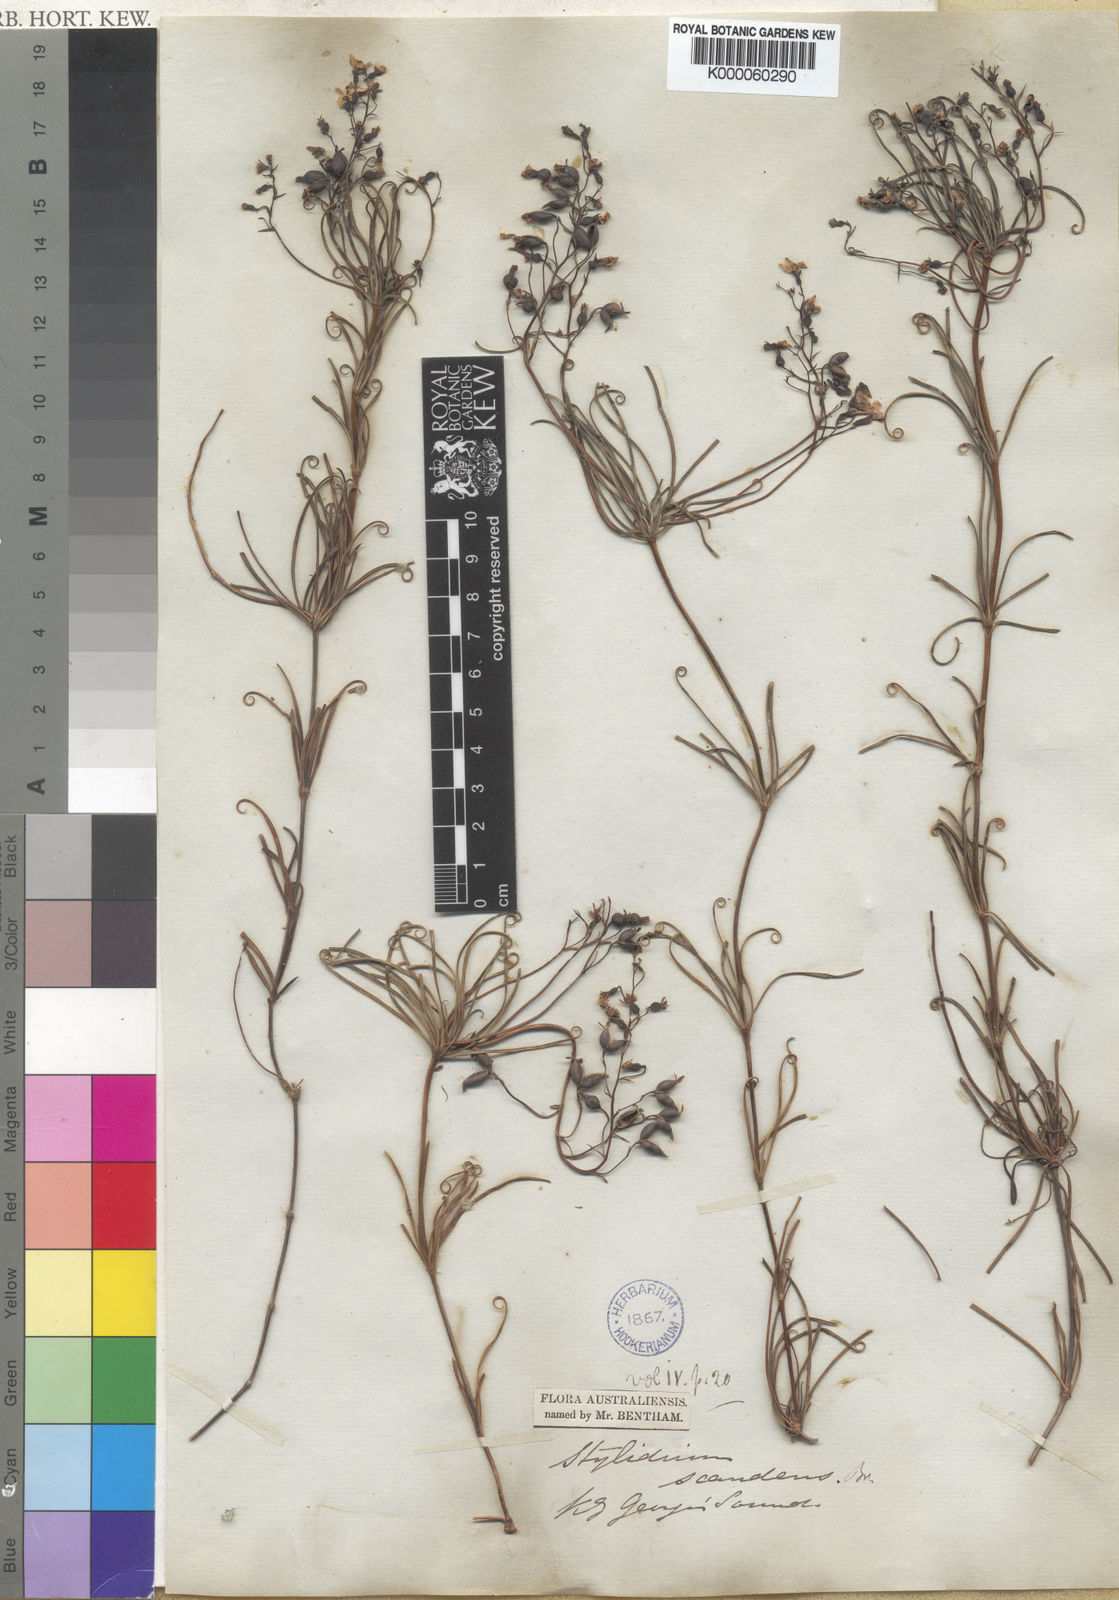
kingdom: Plantae
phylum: Tracheophyta
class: Magnoliopsida
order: Asterales
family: Stylidiaceae
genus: Stylidium
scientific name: Stylidium scandens
